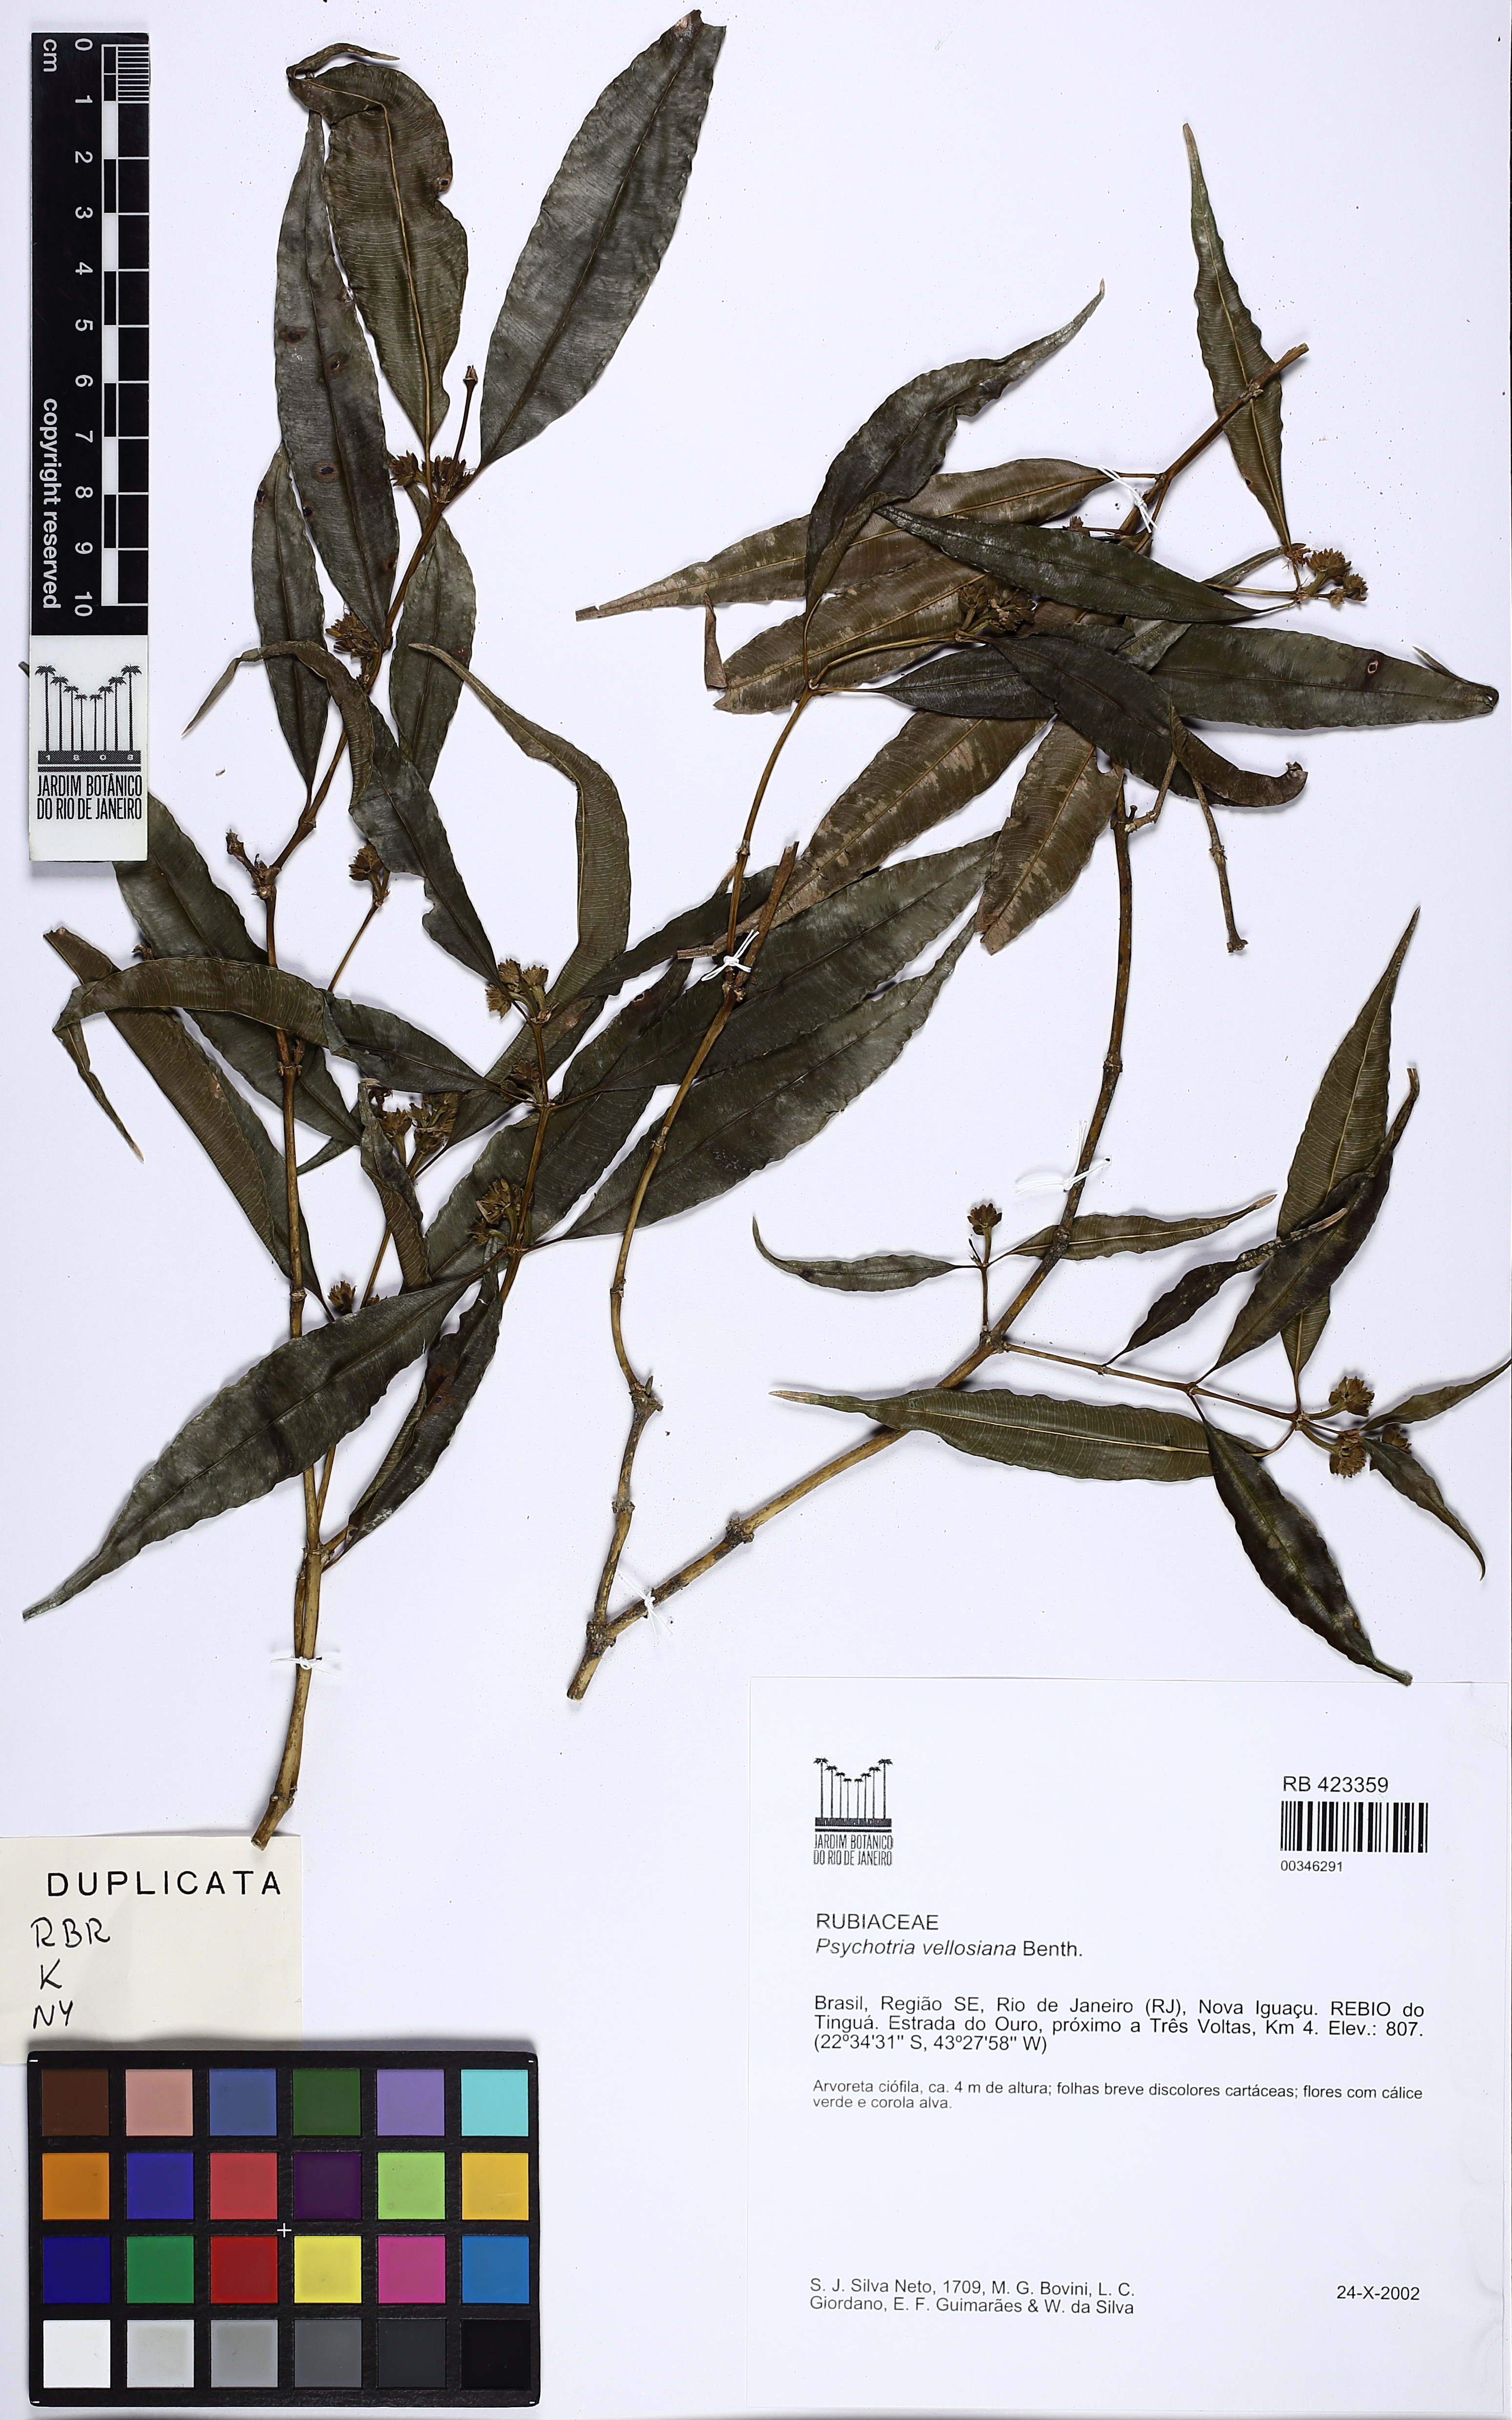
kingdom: Plantae
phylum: Tracheophyta
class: Magnoliopsida
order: Gentianales
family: Rubiaceae
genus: Palicourea
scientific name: Palicourea sessilis
